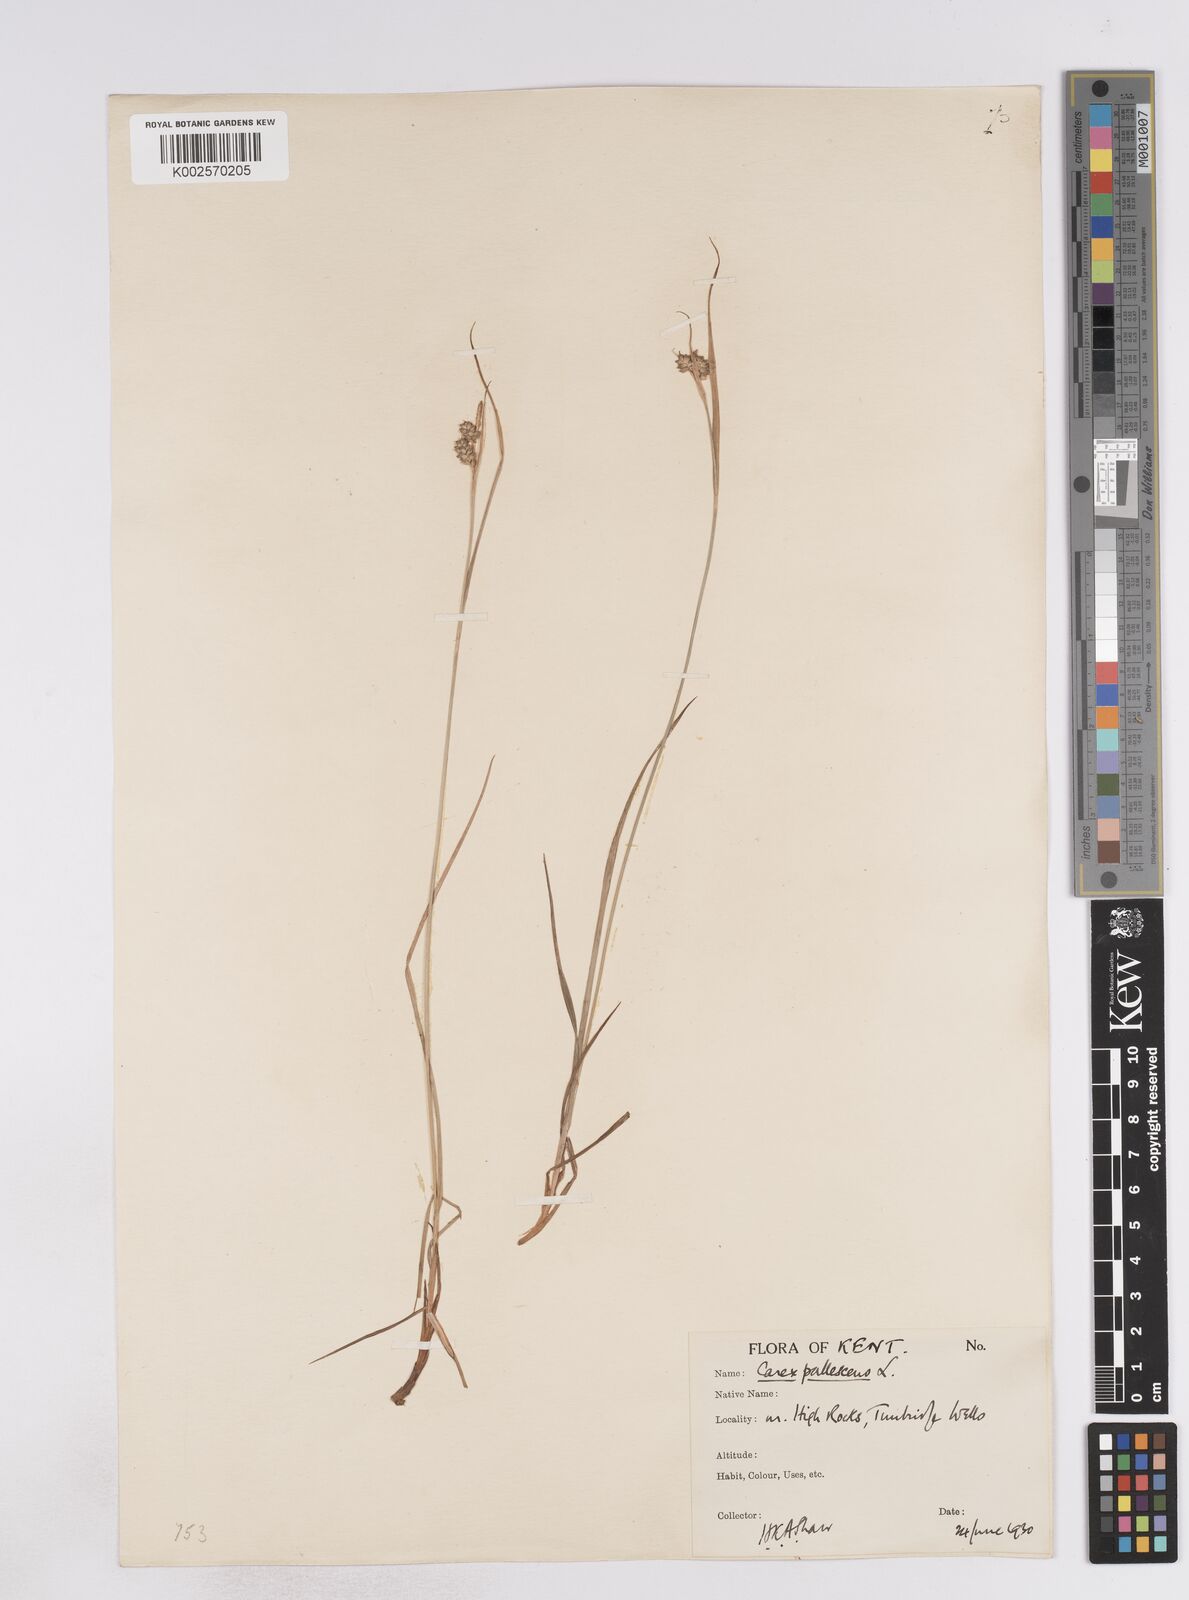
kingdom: Plantae
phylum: Tracheophyta
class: Liliopsida
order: Poales
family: Cyperaceae
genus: Carex
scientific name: Carex pallescens
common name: Pale sedge
